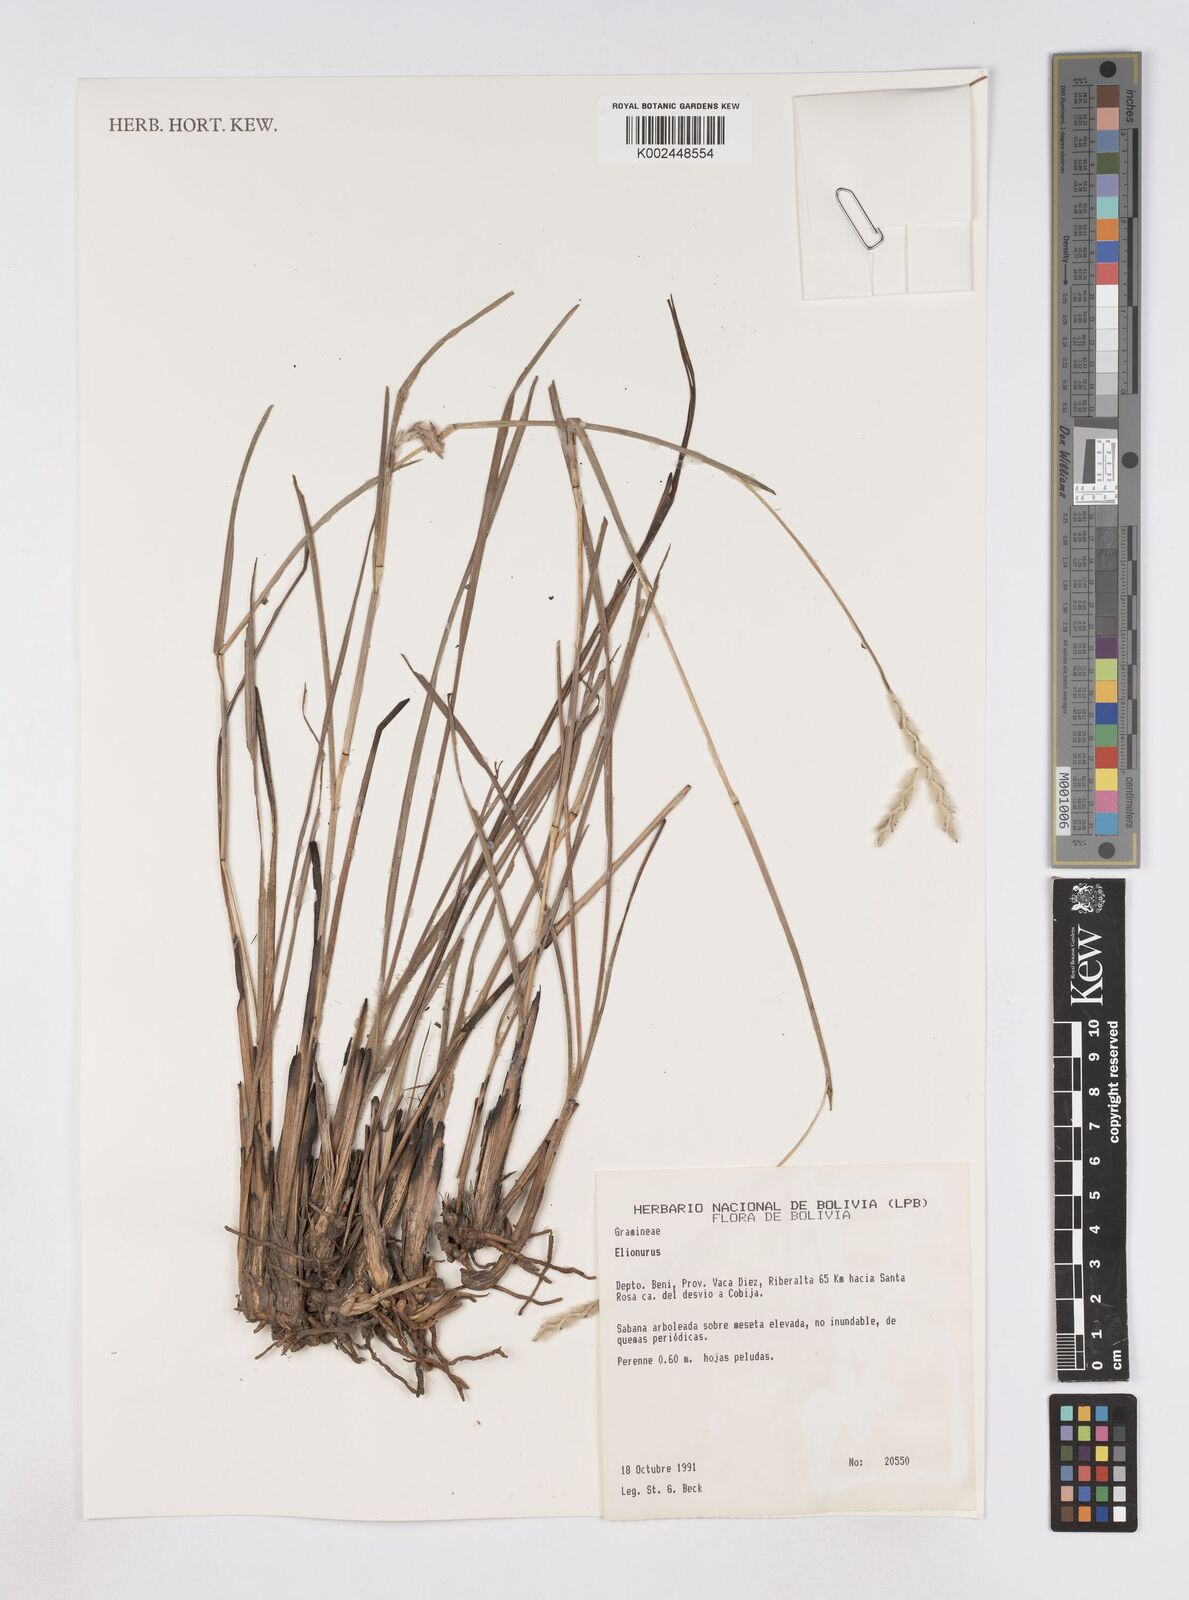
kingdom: Plantae
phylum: Tracheophyta
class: Liliopsida
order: Poales
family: Poaceae
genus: Elionurus
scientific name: Elionurus planifolius
